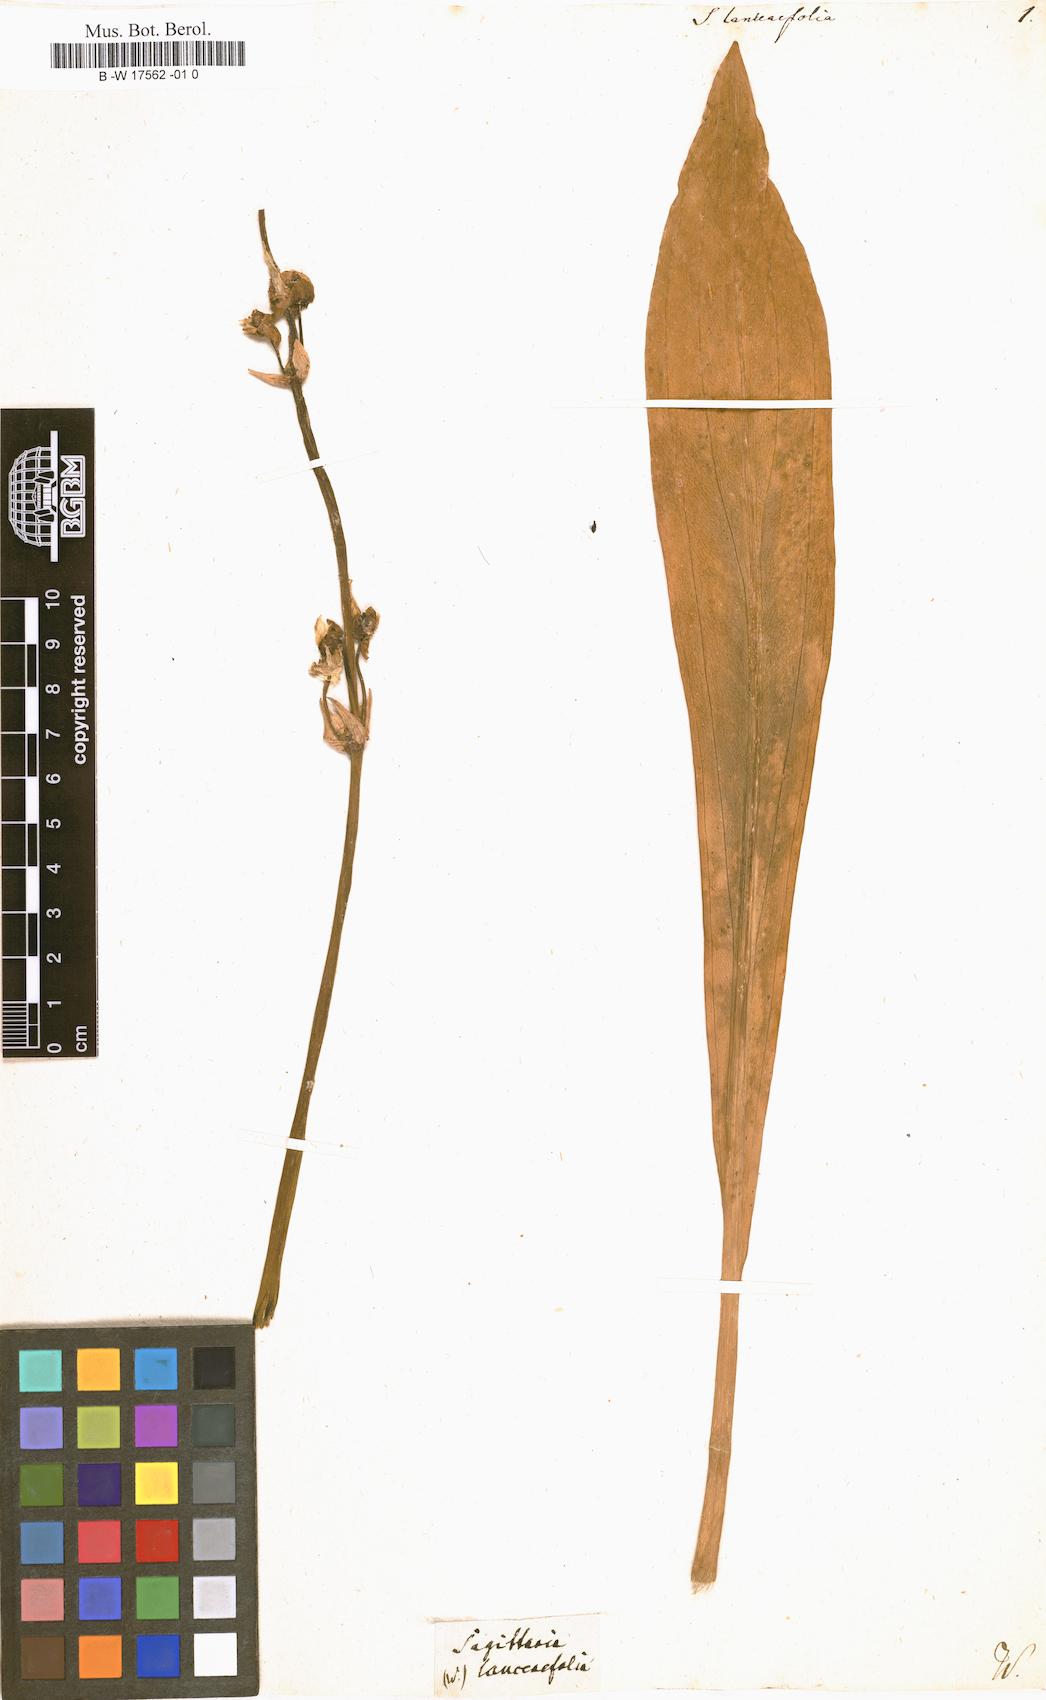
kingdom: Plantae
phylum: Tracheophyta
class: Liliopsida
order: Alismatales
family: Alismataceae
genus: Sagittaria
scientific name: Sagittaria
